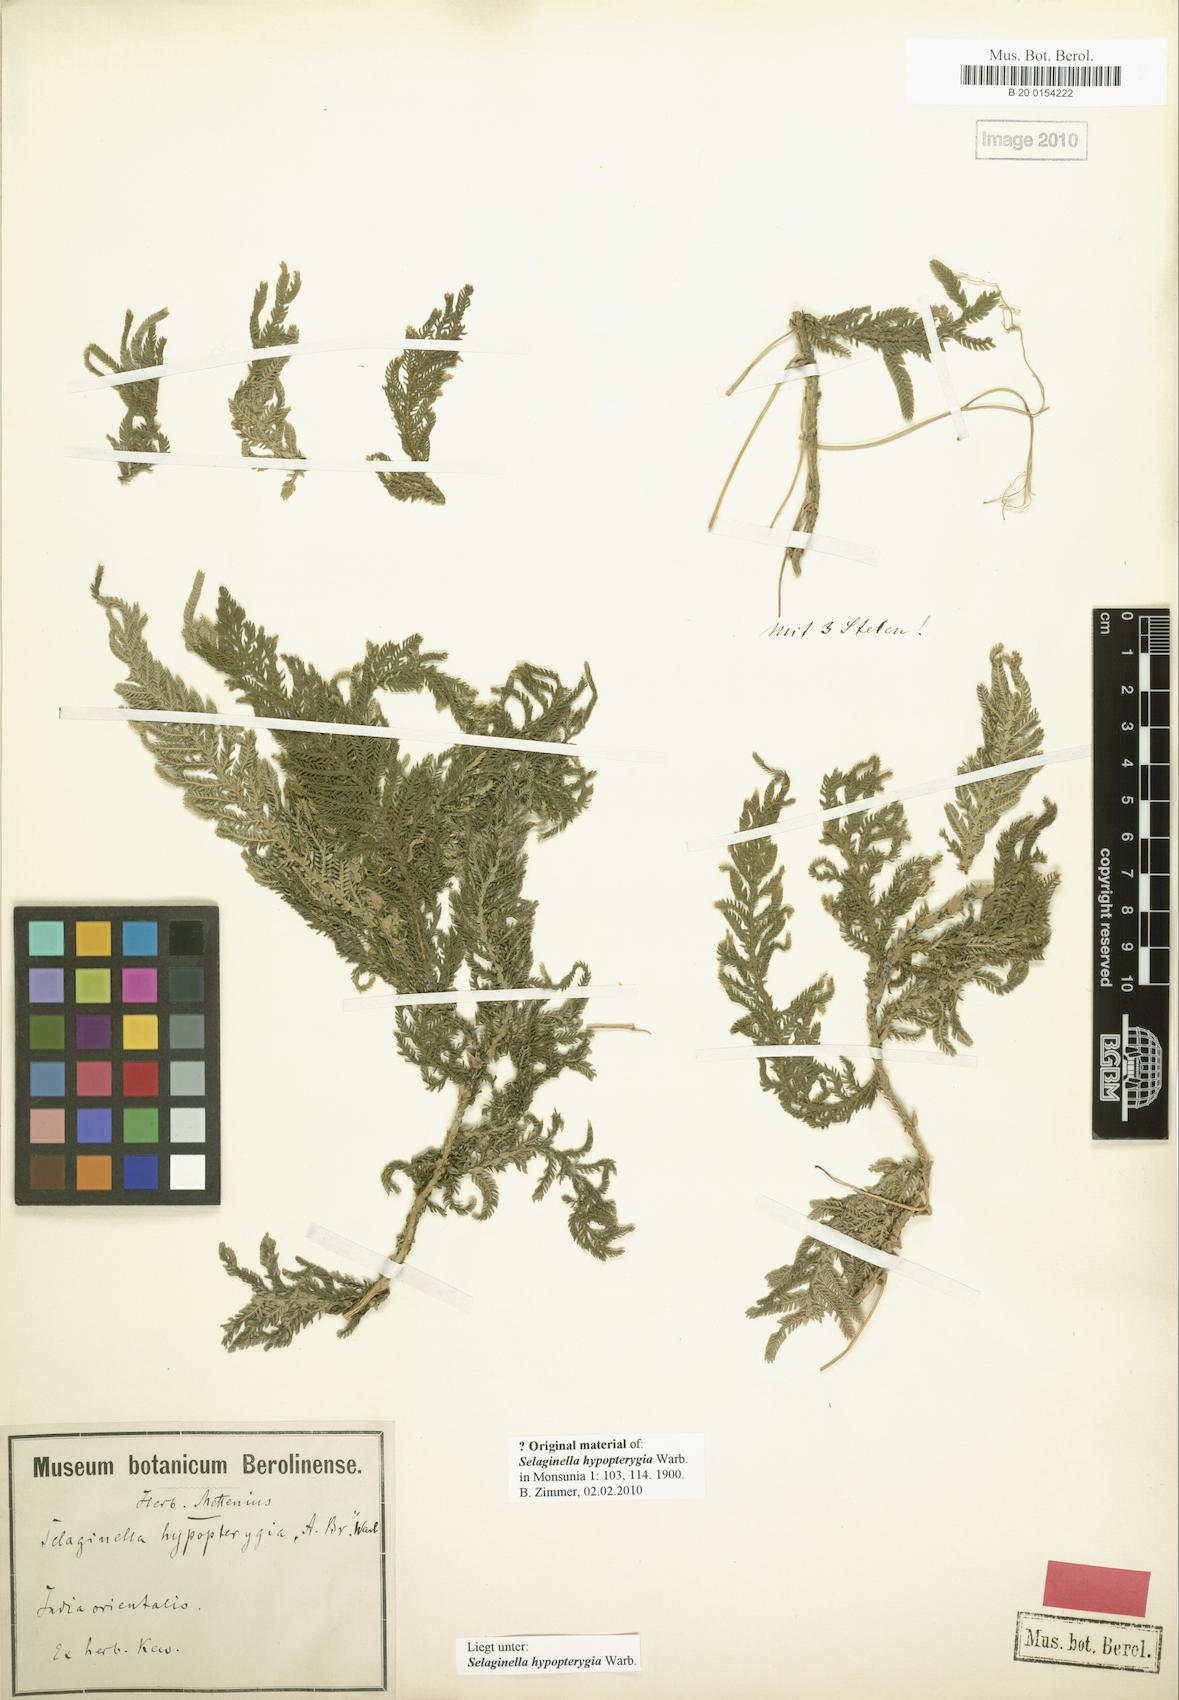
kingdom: Plantae
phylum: Tracheophyta
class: Lycopodiopsida
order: Selaginellales
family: Selaginellaceae
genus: Selaginella
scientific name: Selaginella picta
